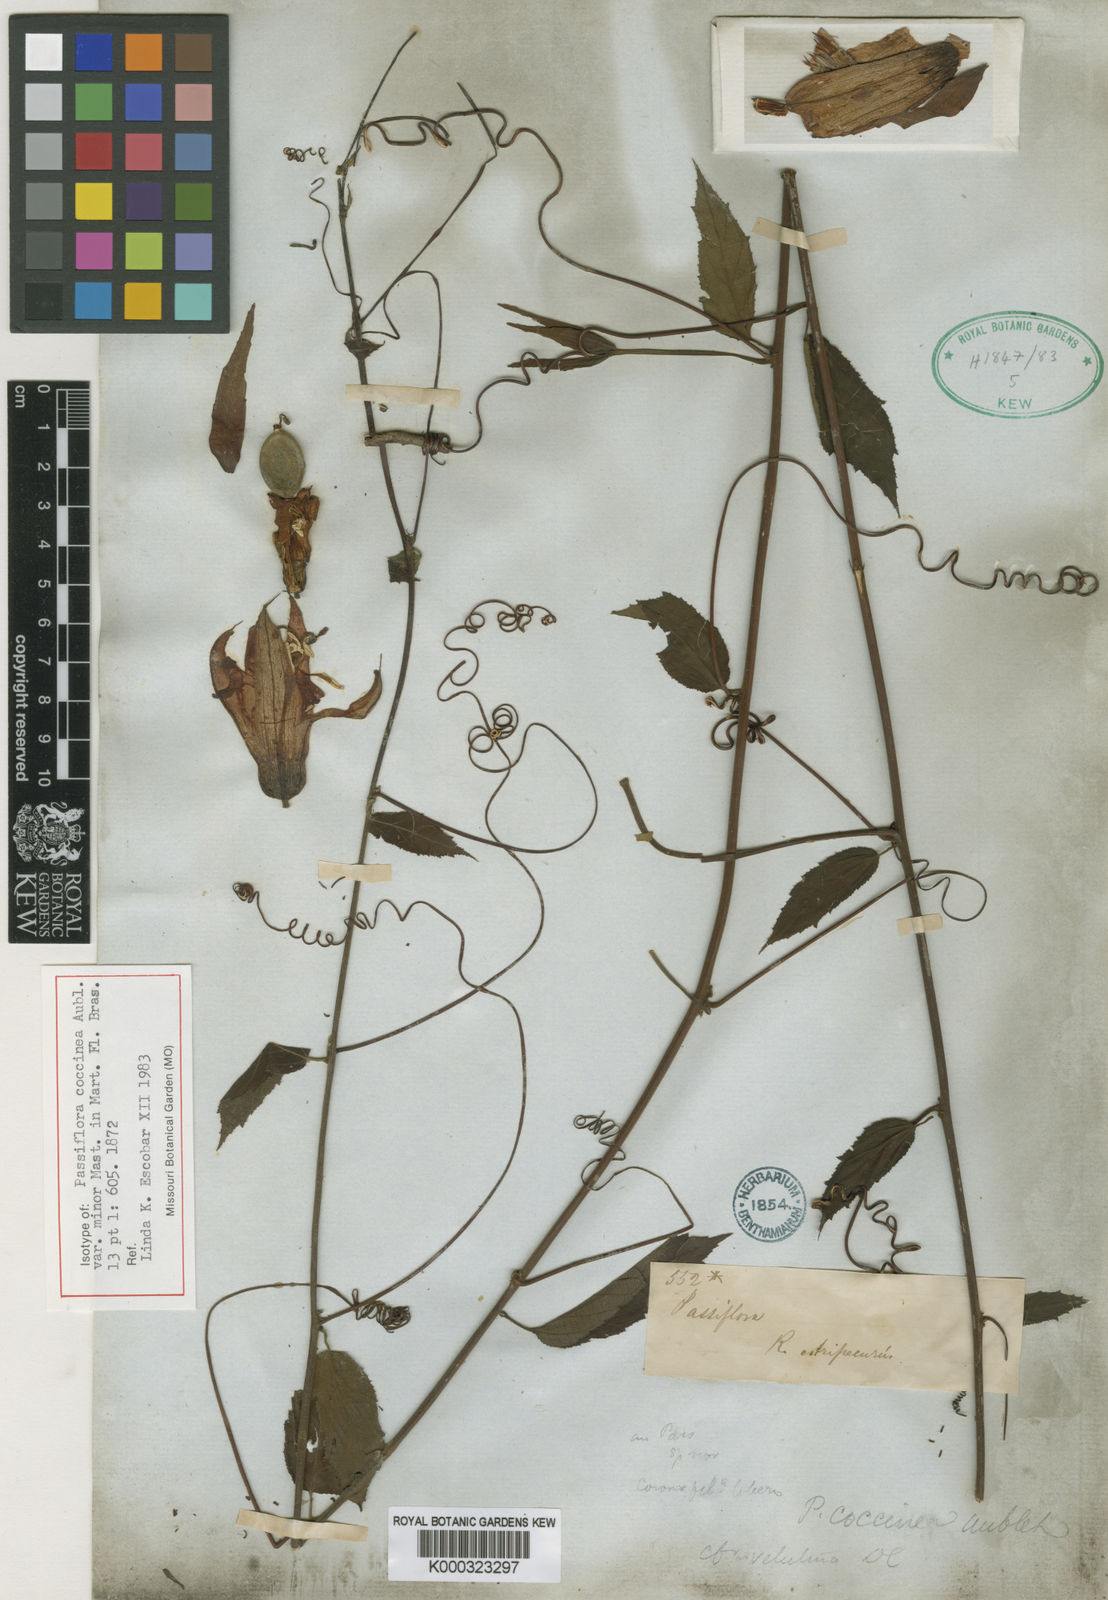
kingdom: Plantae
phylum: Tracheophyta
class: Magnoliopsida
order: Malpighiales
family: Passifloraceae
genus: Passiflora
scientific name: Passiflora coccinea
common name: Scarlet passionflower
